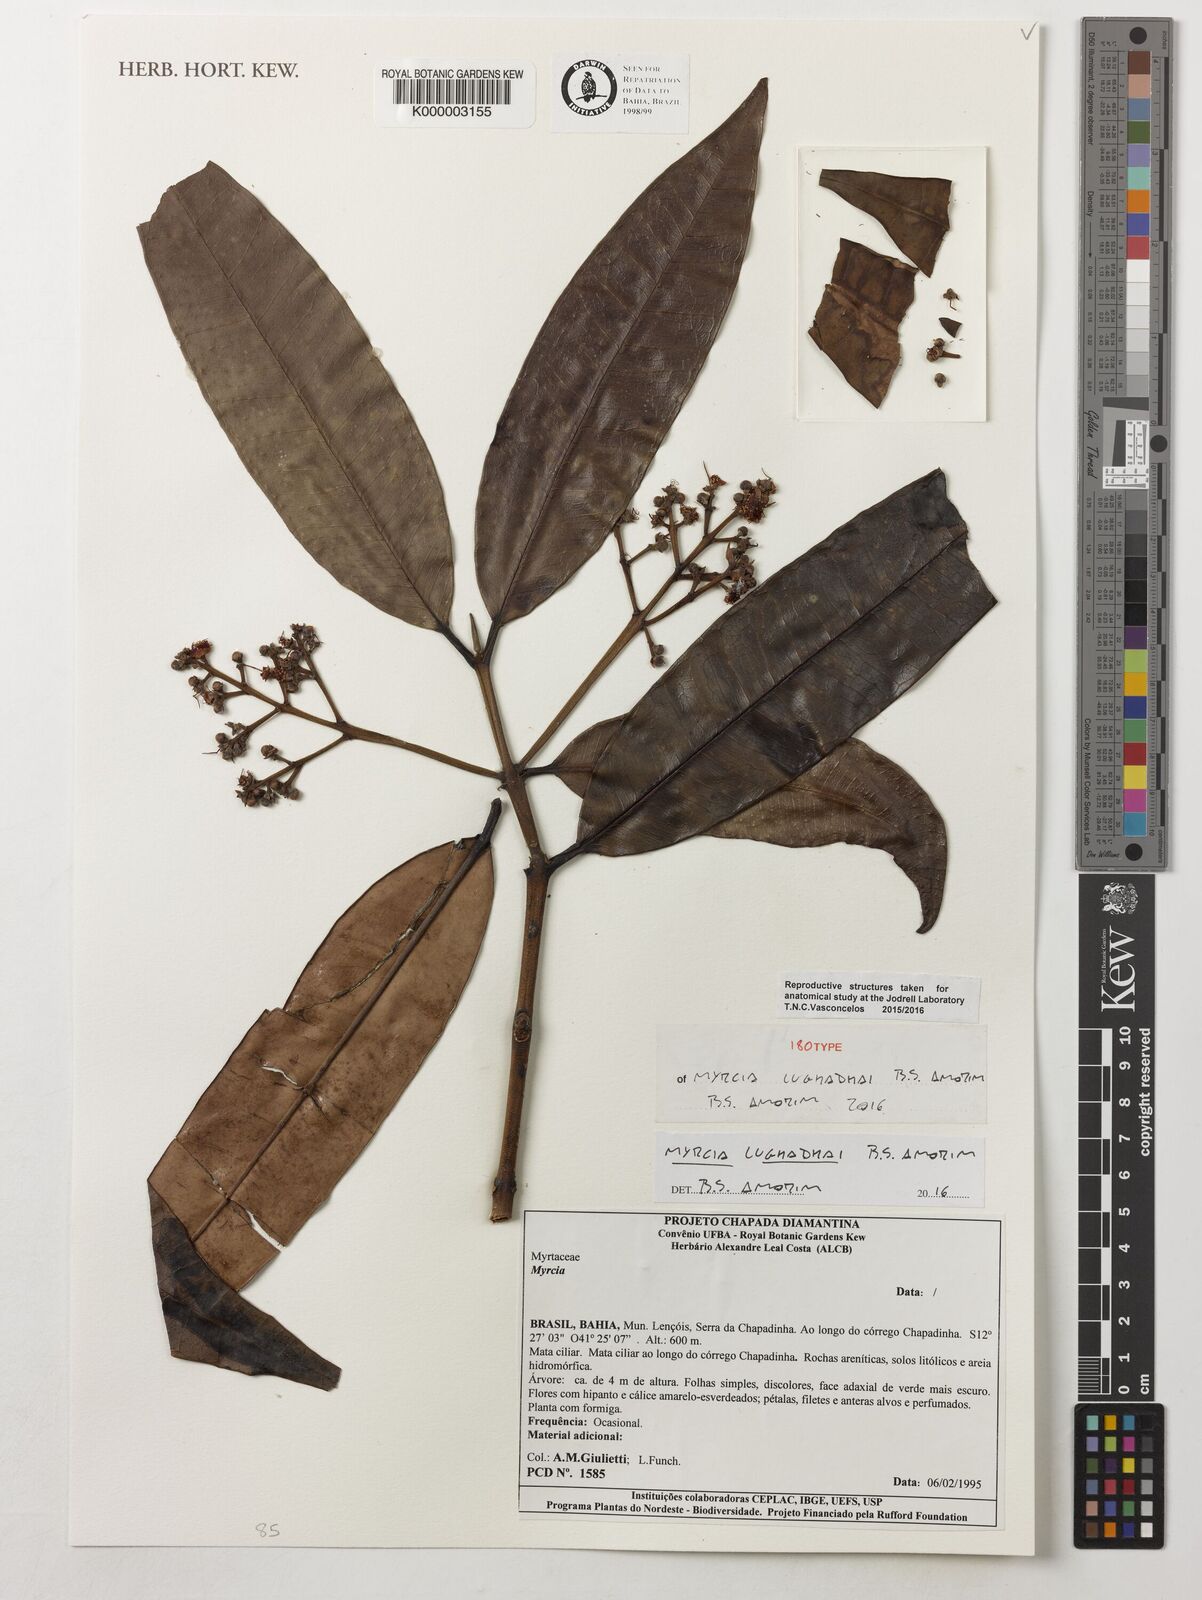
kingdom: Plantae
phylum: Tracheophyta
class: Magnoliopsida
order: Myrtales
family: Myrtaceae
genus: Myrcia
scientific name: Myrcia lughadhae
